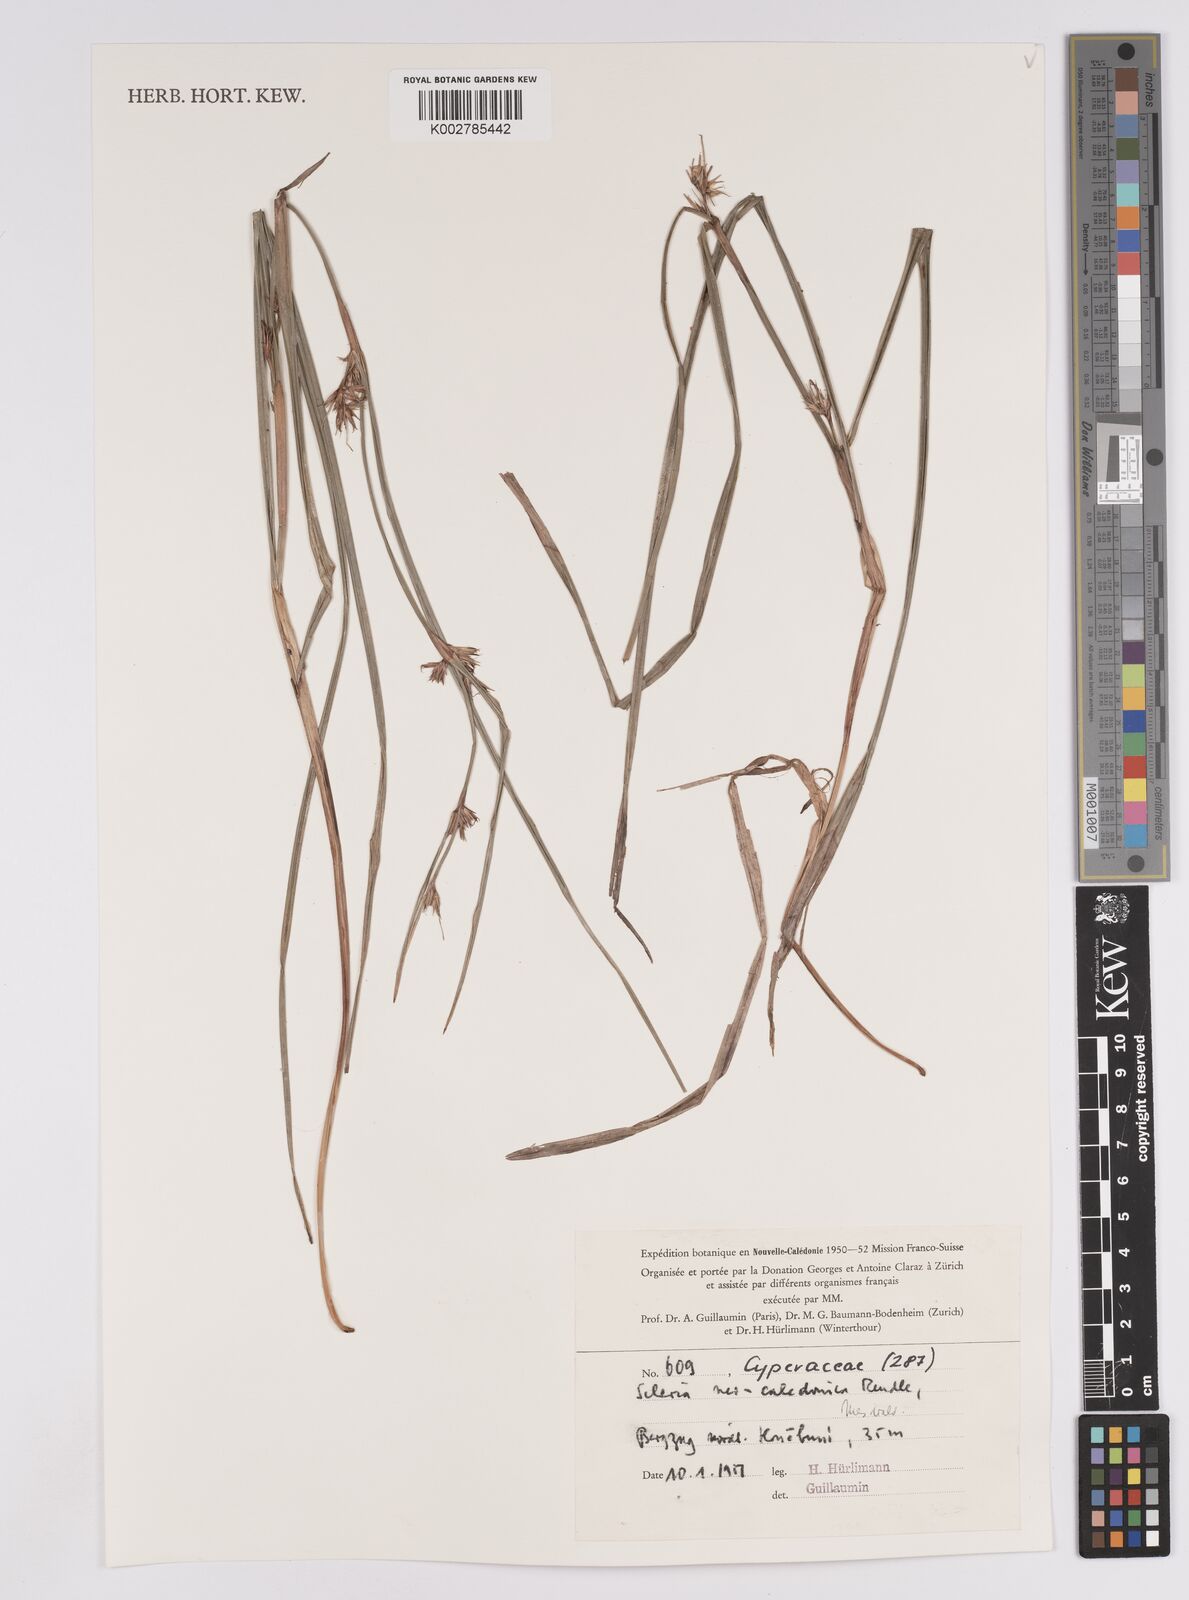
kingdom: Plantae
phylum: Tracheophyta
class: Liliopsida
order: Poales
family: Cyperaceae
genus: Scleria
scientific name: Scleria neocaledonica
